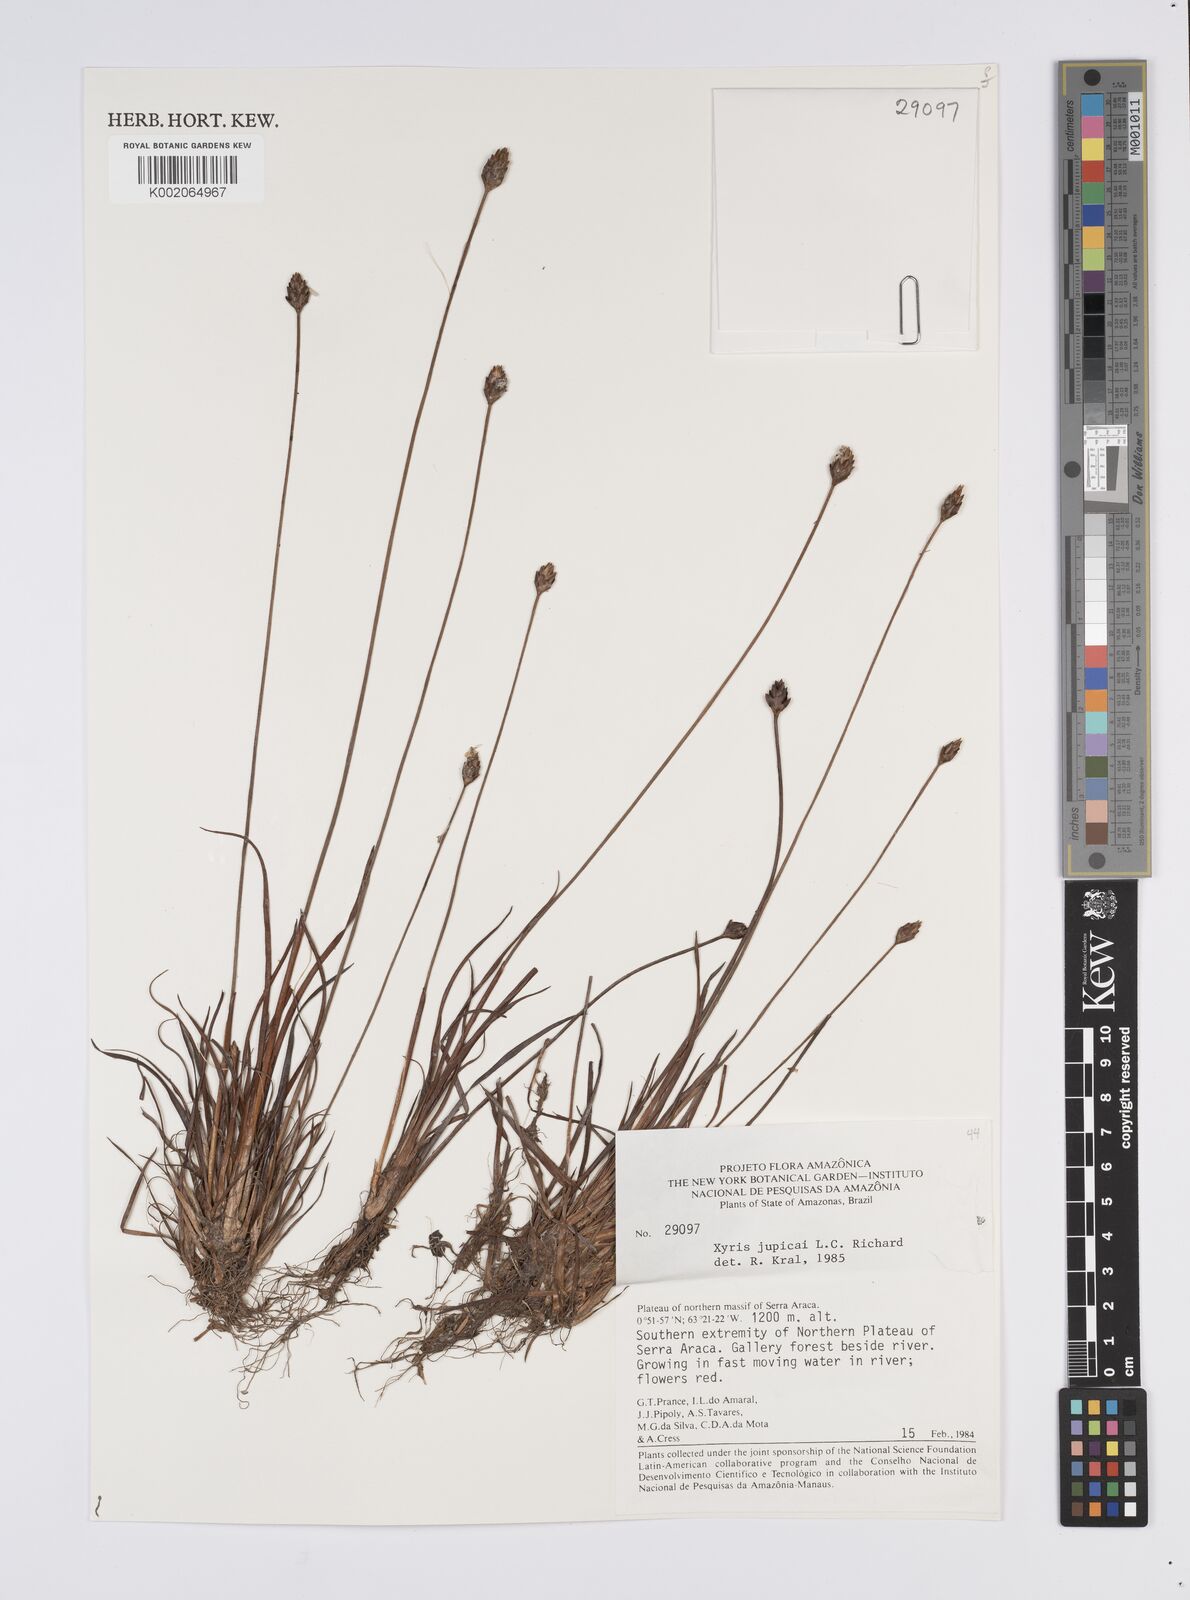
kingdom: Plantae
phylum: Tracheophyta
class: Liliopsida
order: Poales
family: Xyridaceae
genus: Xyris
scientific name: Xyris jupicai
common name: Richard's yelloweyed grass
